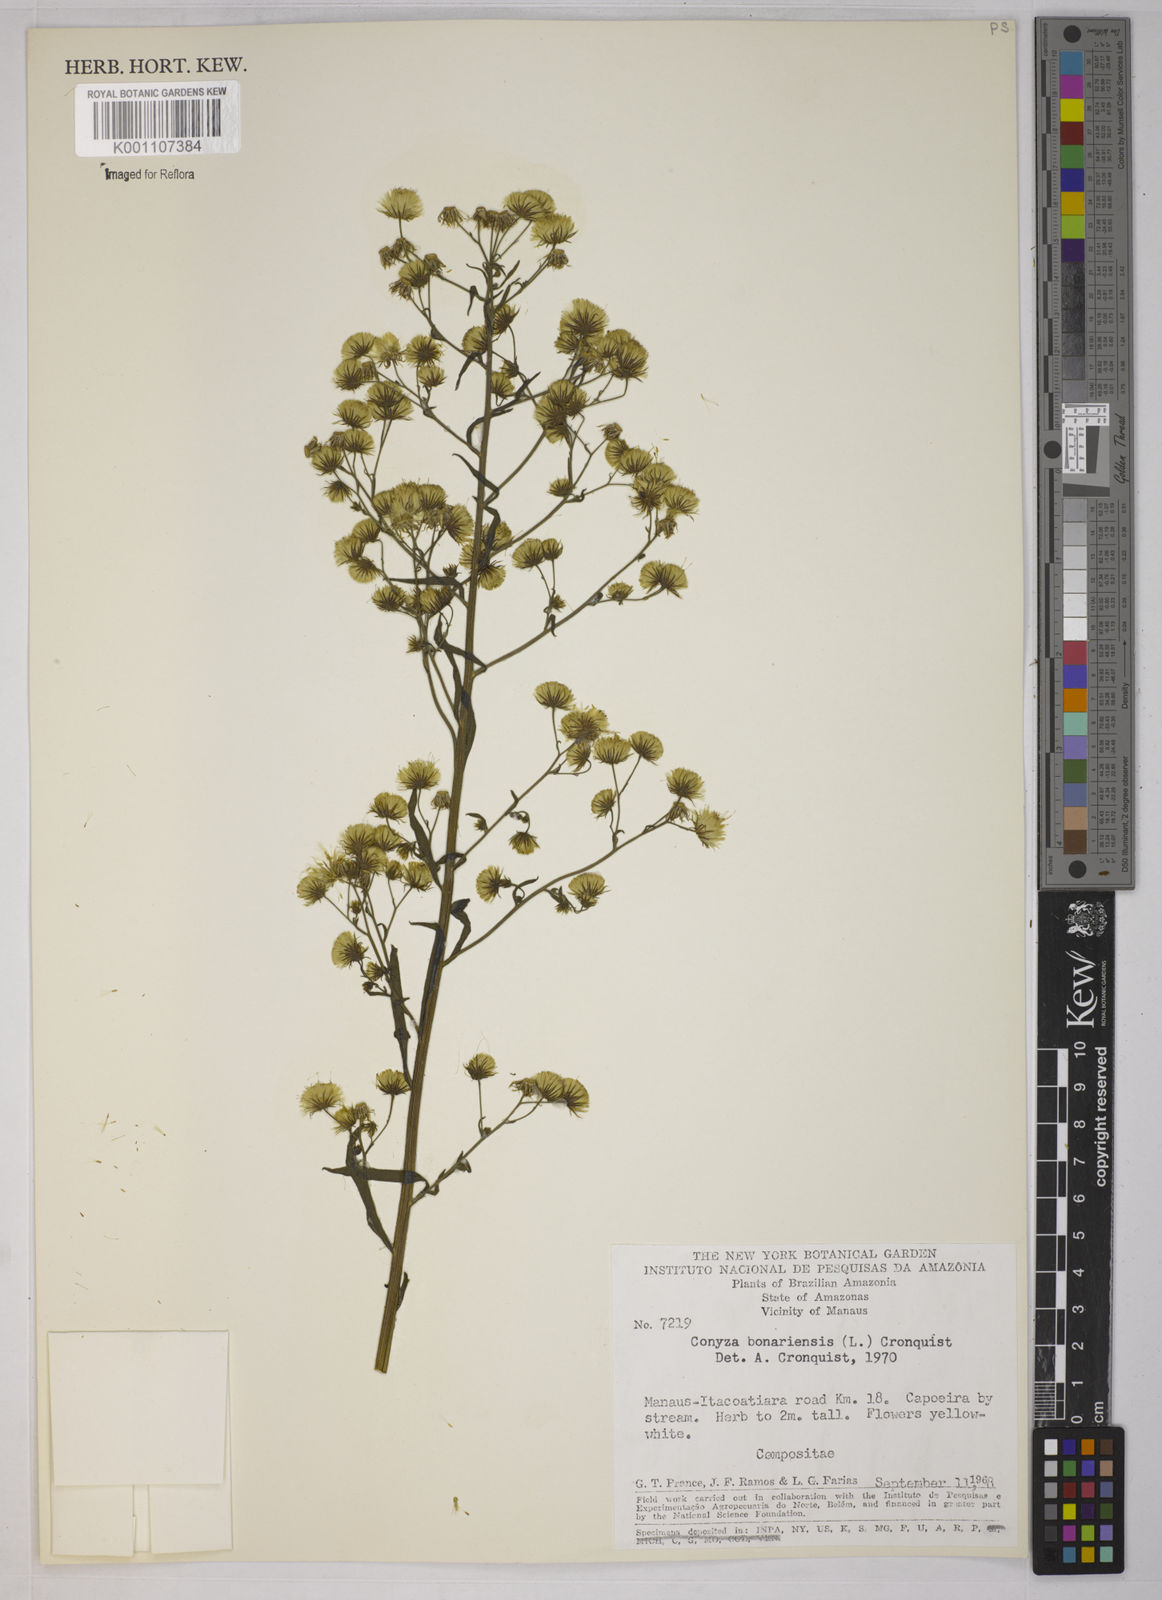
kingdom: Plantae
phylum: Tracheophyta
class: Magnoliopsida
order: Asterales
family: Asteraceae
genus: Erigeron
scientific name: Erigeron sumatrensis
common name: Daisy
